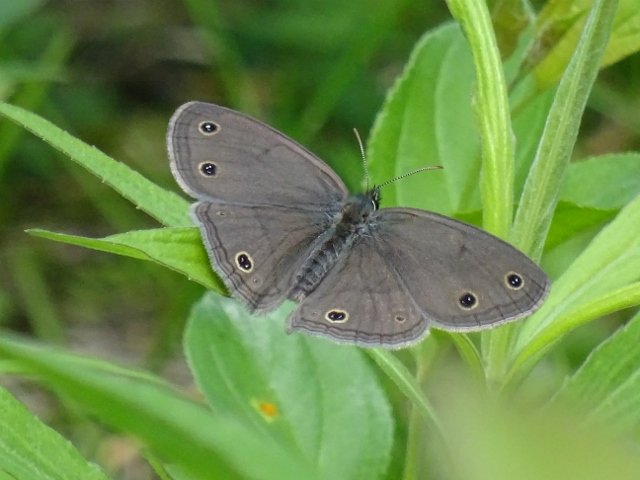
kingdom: Animalia
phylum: Arthropoda
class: Insecta
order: Lepidoptera
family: Nymphalidae
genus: Euptychia
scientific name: Euptychia cymela
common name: Little Wood Satyr
